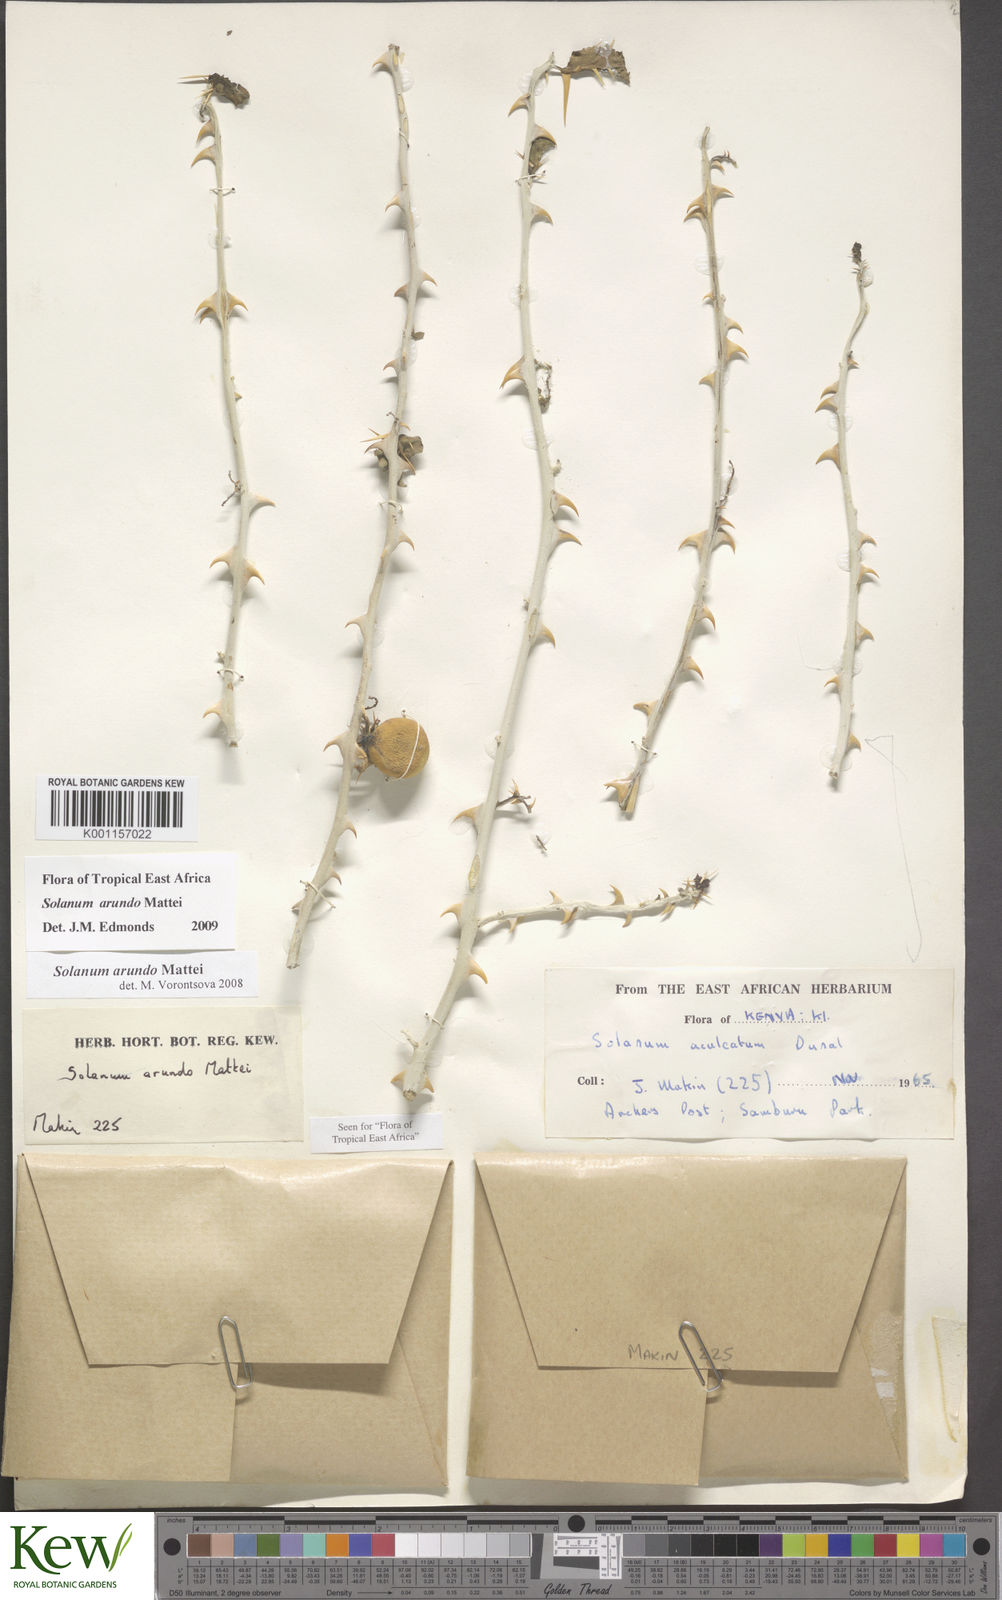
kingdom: Plantae
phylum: Tracheophyta
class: Magnoliopsida
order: Solanales
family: Solanaceae
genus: Solanum
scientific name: Solanum arundo
